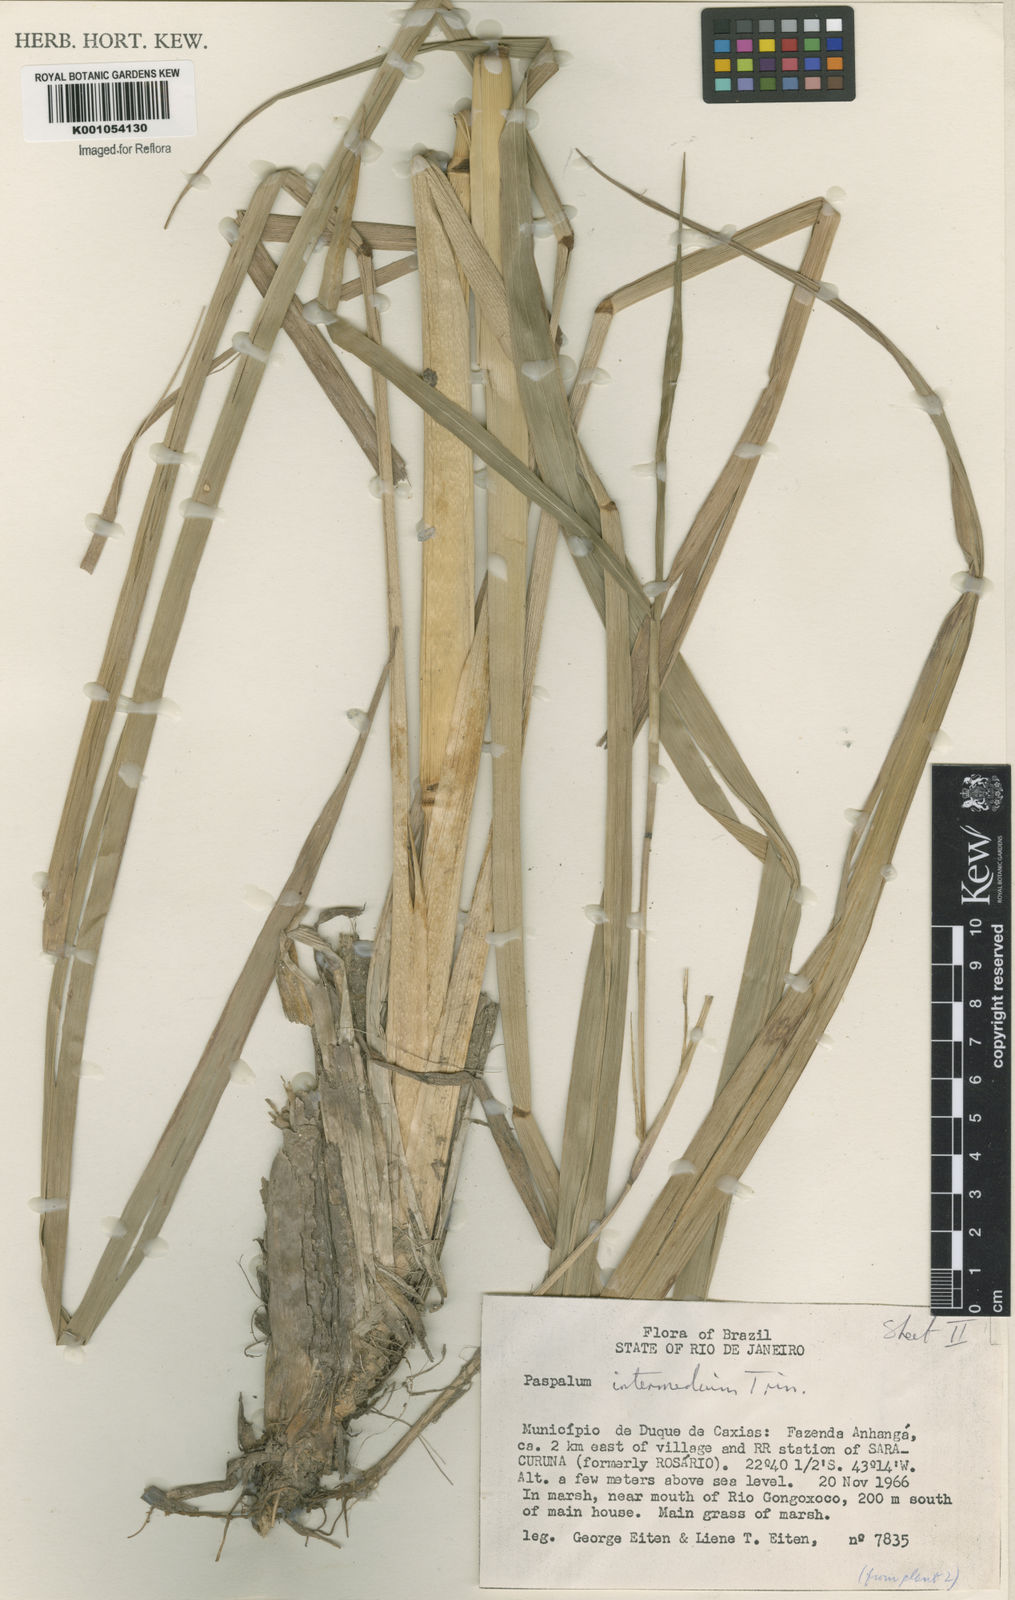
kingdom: Plantae
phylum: Tracheophyta
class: Liliopsida
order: Poales
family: Poaceae
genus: Paspalum
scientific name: Paspalum
